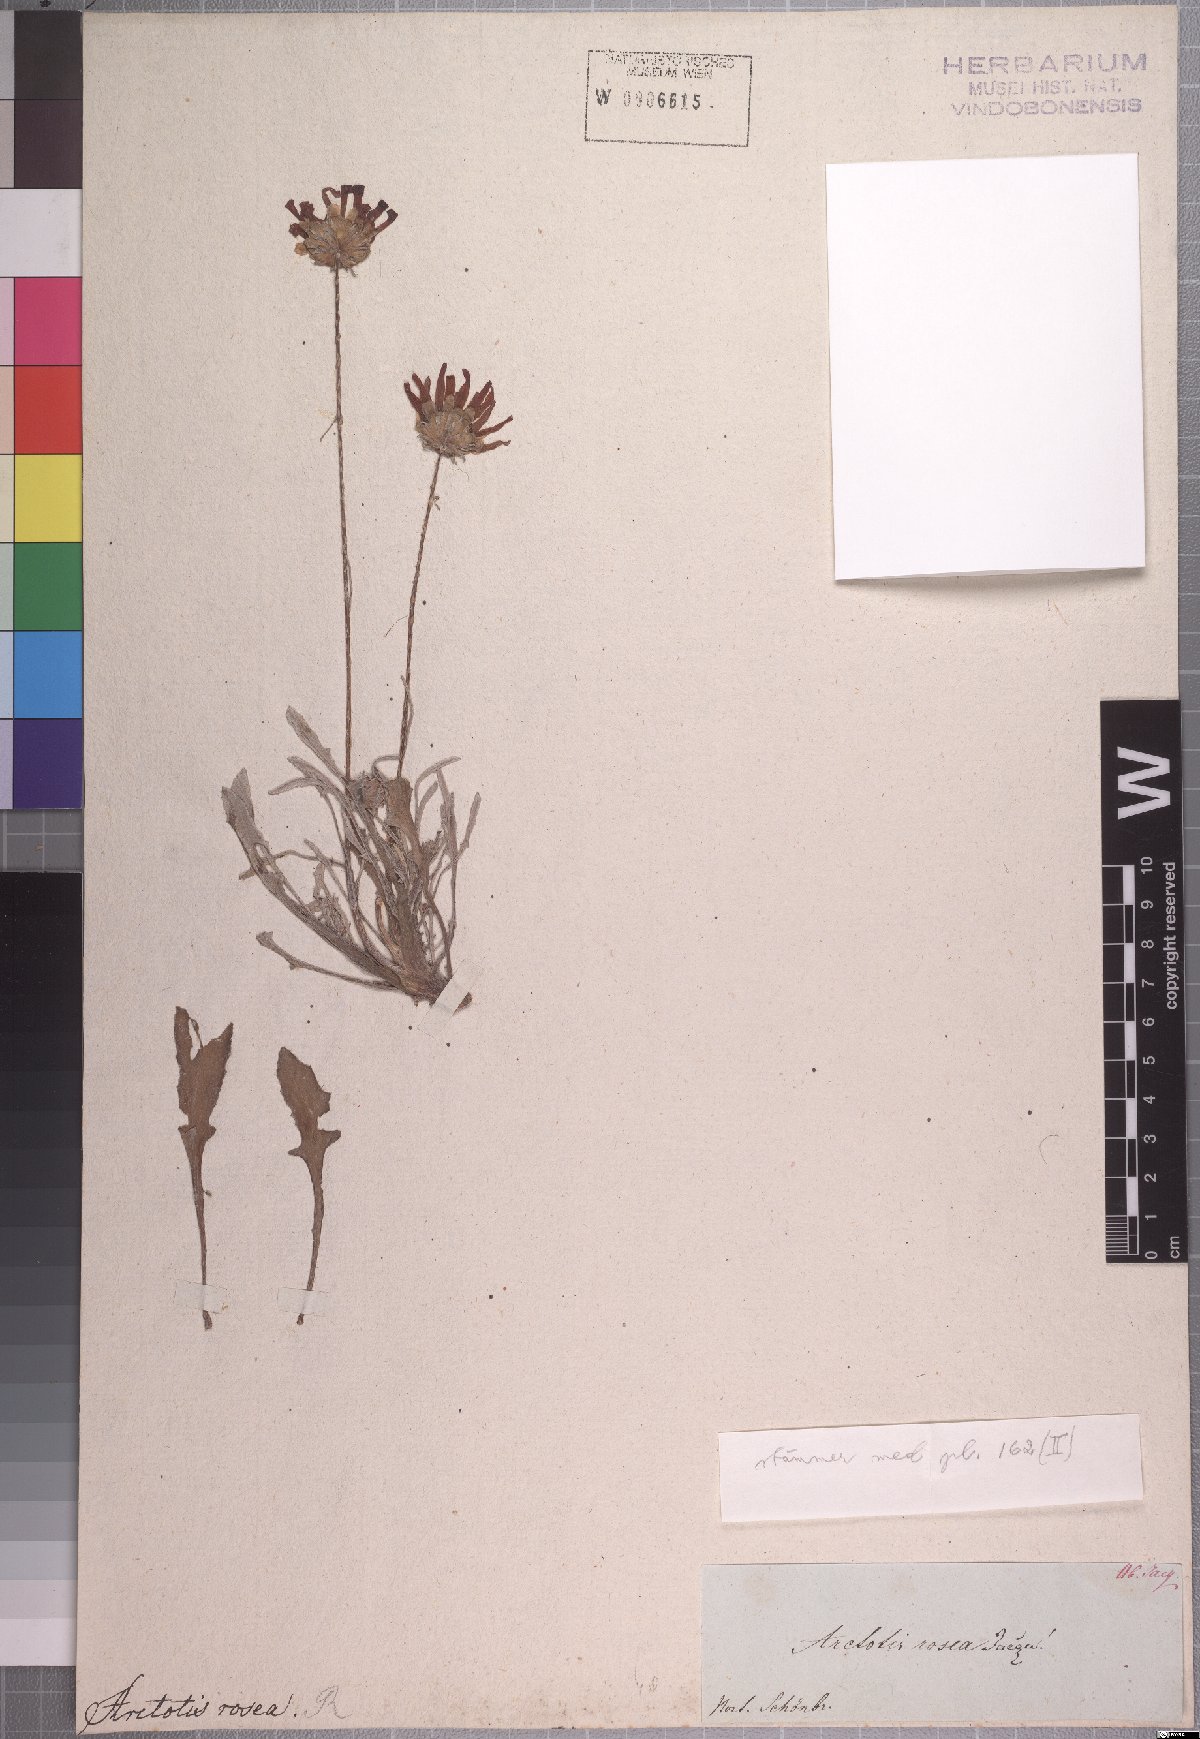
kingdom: Plantae
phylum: Tracheophyta
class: Magnoliopsida
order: Asterales
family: Asteraceae
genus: Arctotis
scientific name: Arctotis rosea
